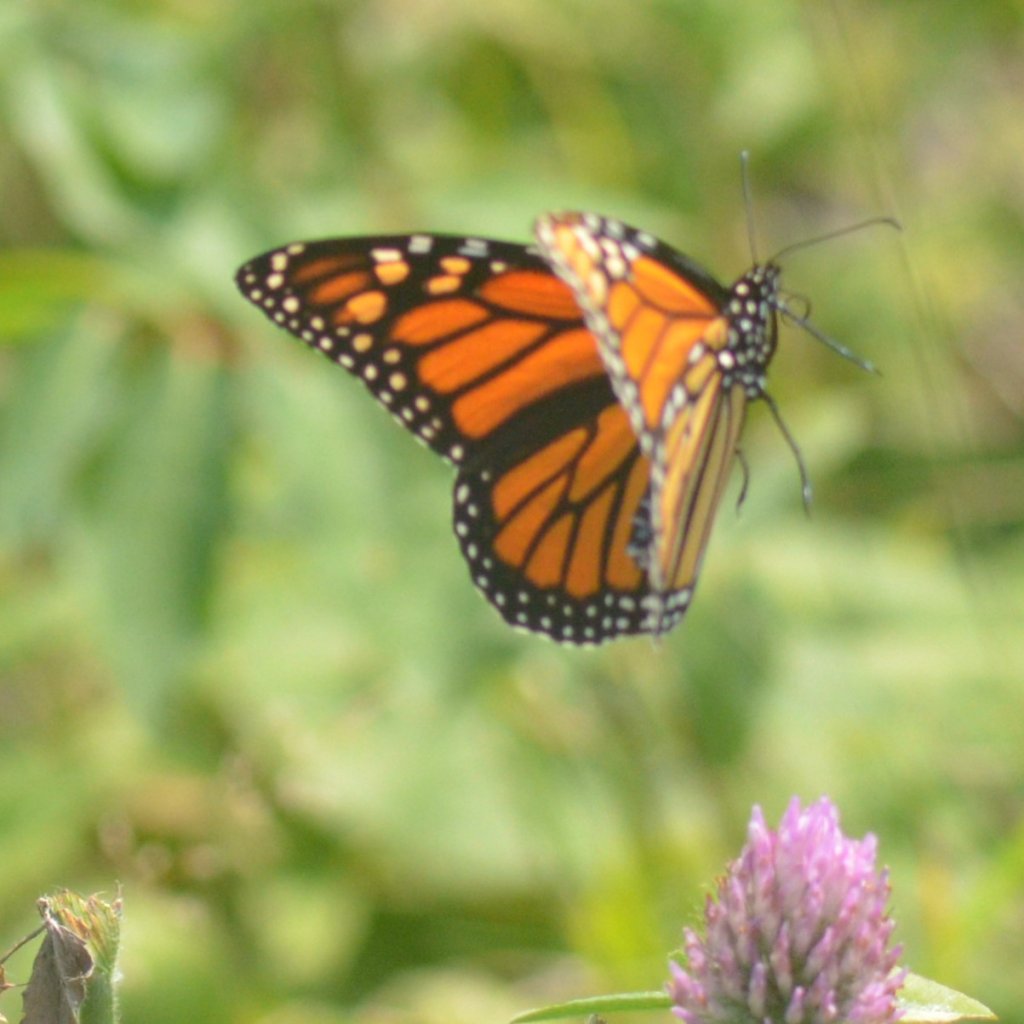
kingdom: Animalia
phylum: Arthropoda
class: Insecta
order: Lepidoptera
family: Nymphalidae
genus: Danaus
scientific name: Danaus plexippus
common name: Monarch
